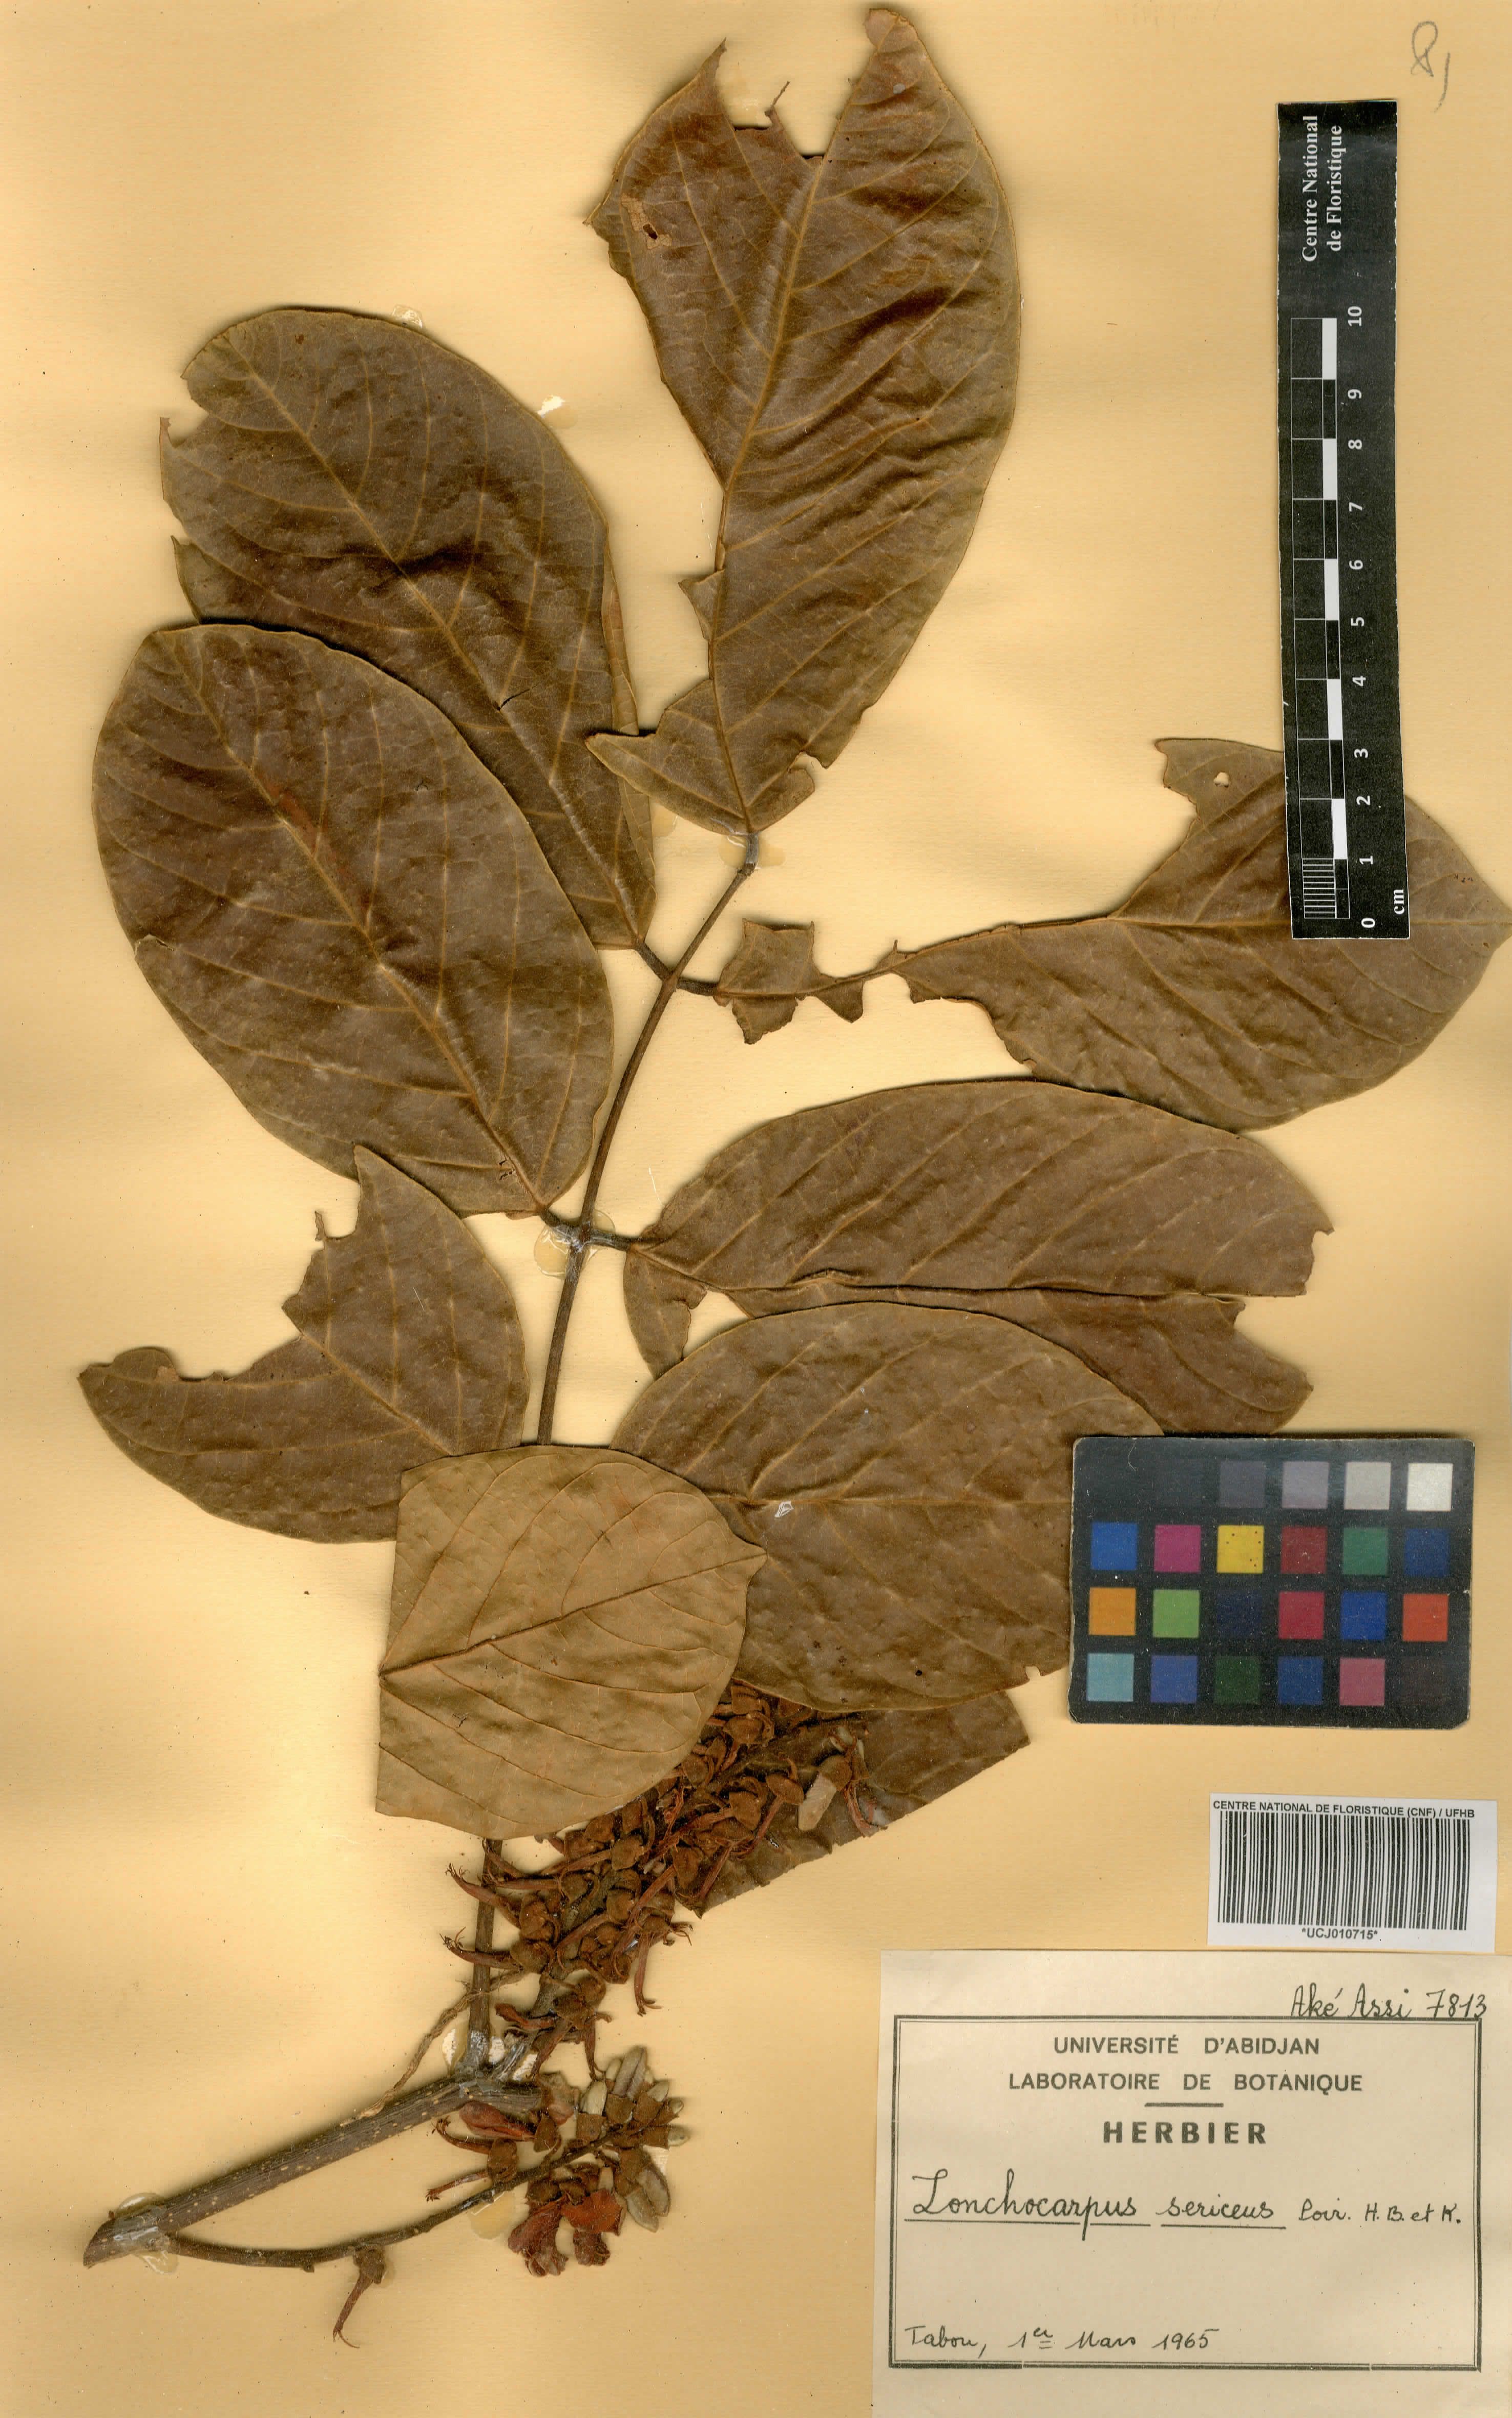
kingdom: Plantae
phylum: Tracheophyta
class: Magnoliopsida
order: Fabales
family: Fabaceae
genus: Lonchocarpus
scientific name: Lonchocarpus sericeus
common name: Savonette
